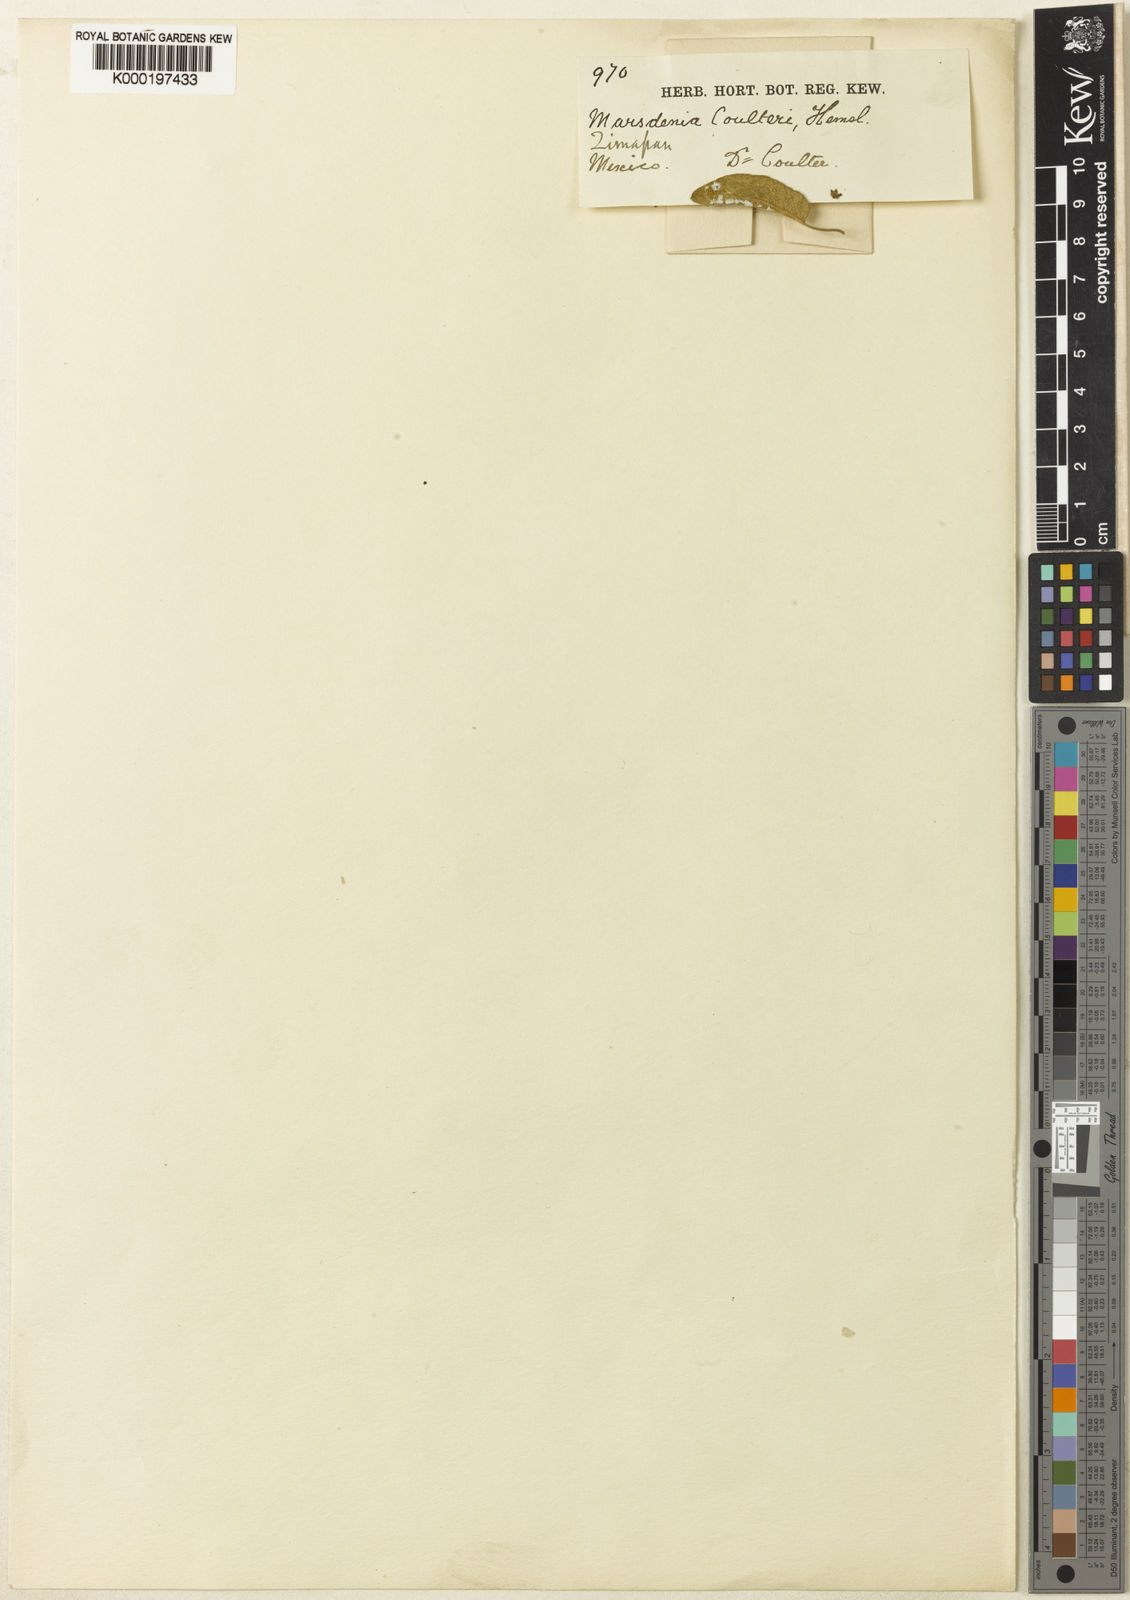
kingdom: Plantae
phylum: Tracheophyta
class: Magnoliopsida
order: Gentianales
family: Apocynaceae
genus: Ruehssia
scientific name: Ruehssia coulteri
